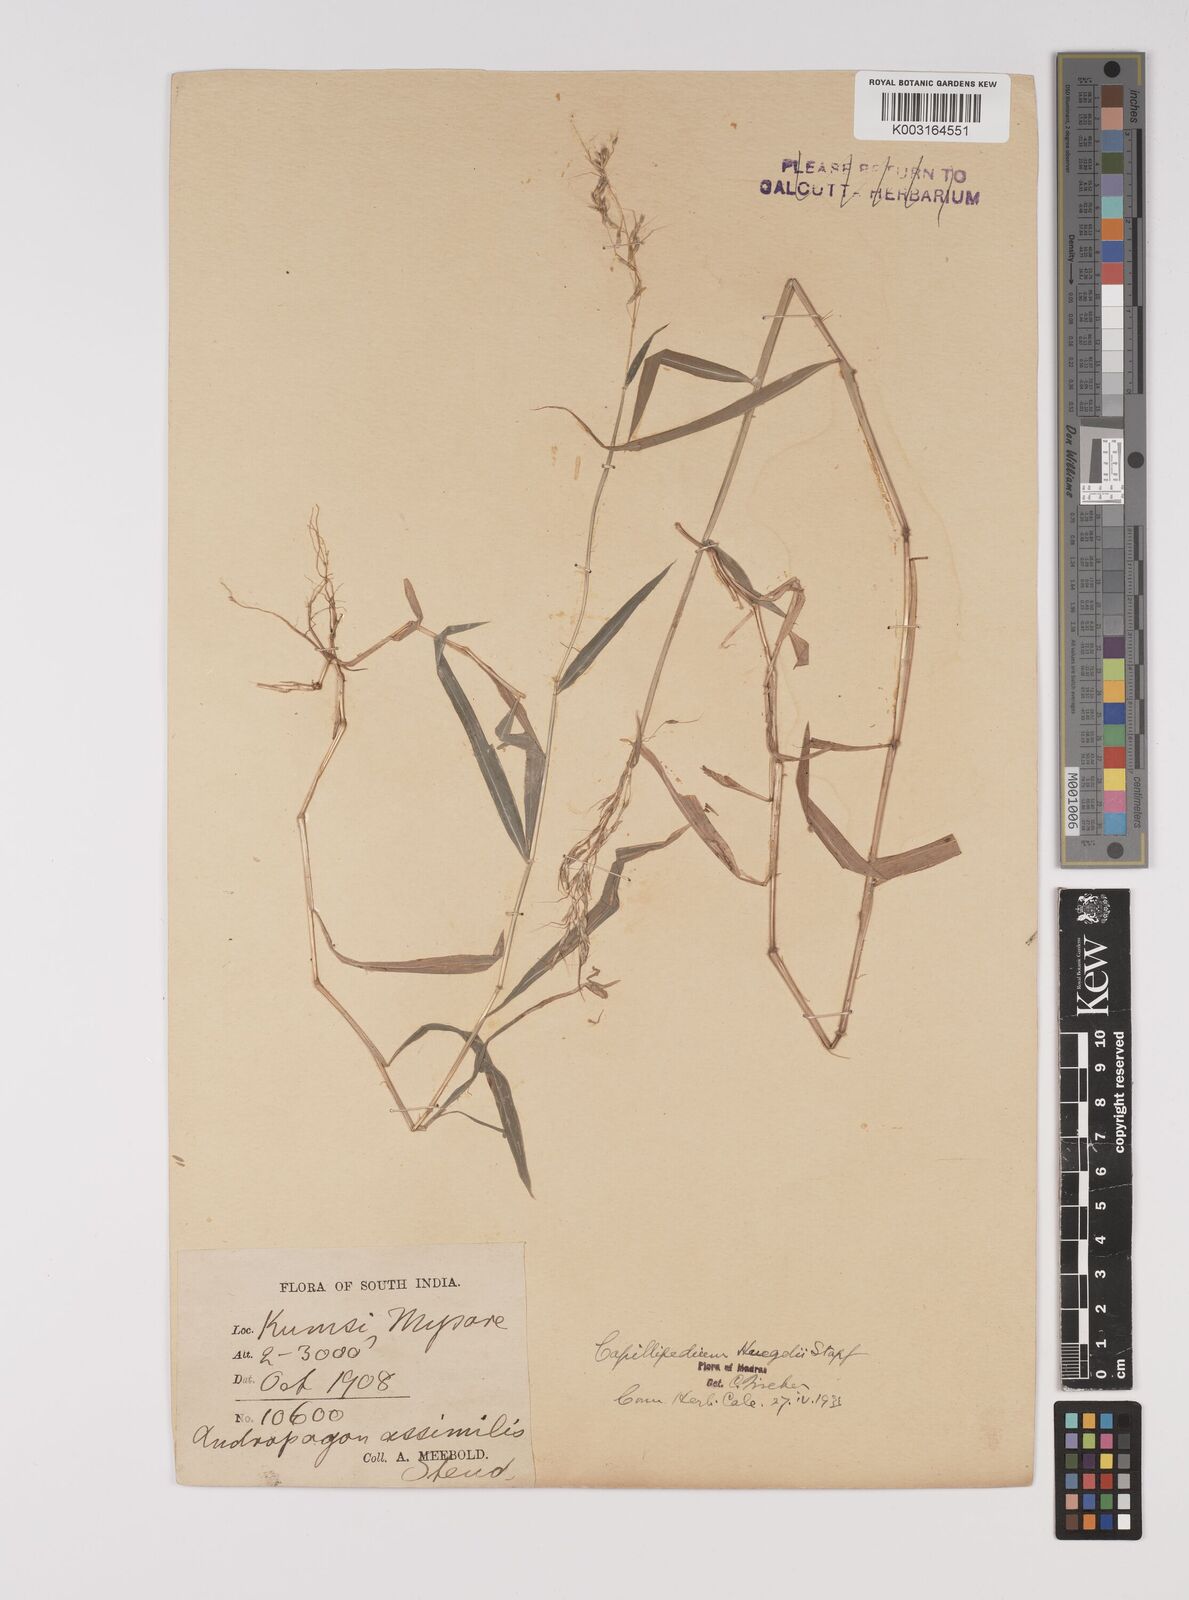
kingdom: Plantae
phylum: Tracheophyta
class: Liliopsida
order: Poales
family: Poaceae
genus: Capillipedium
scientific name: Capillipedium huegelii
